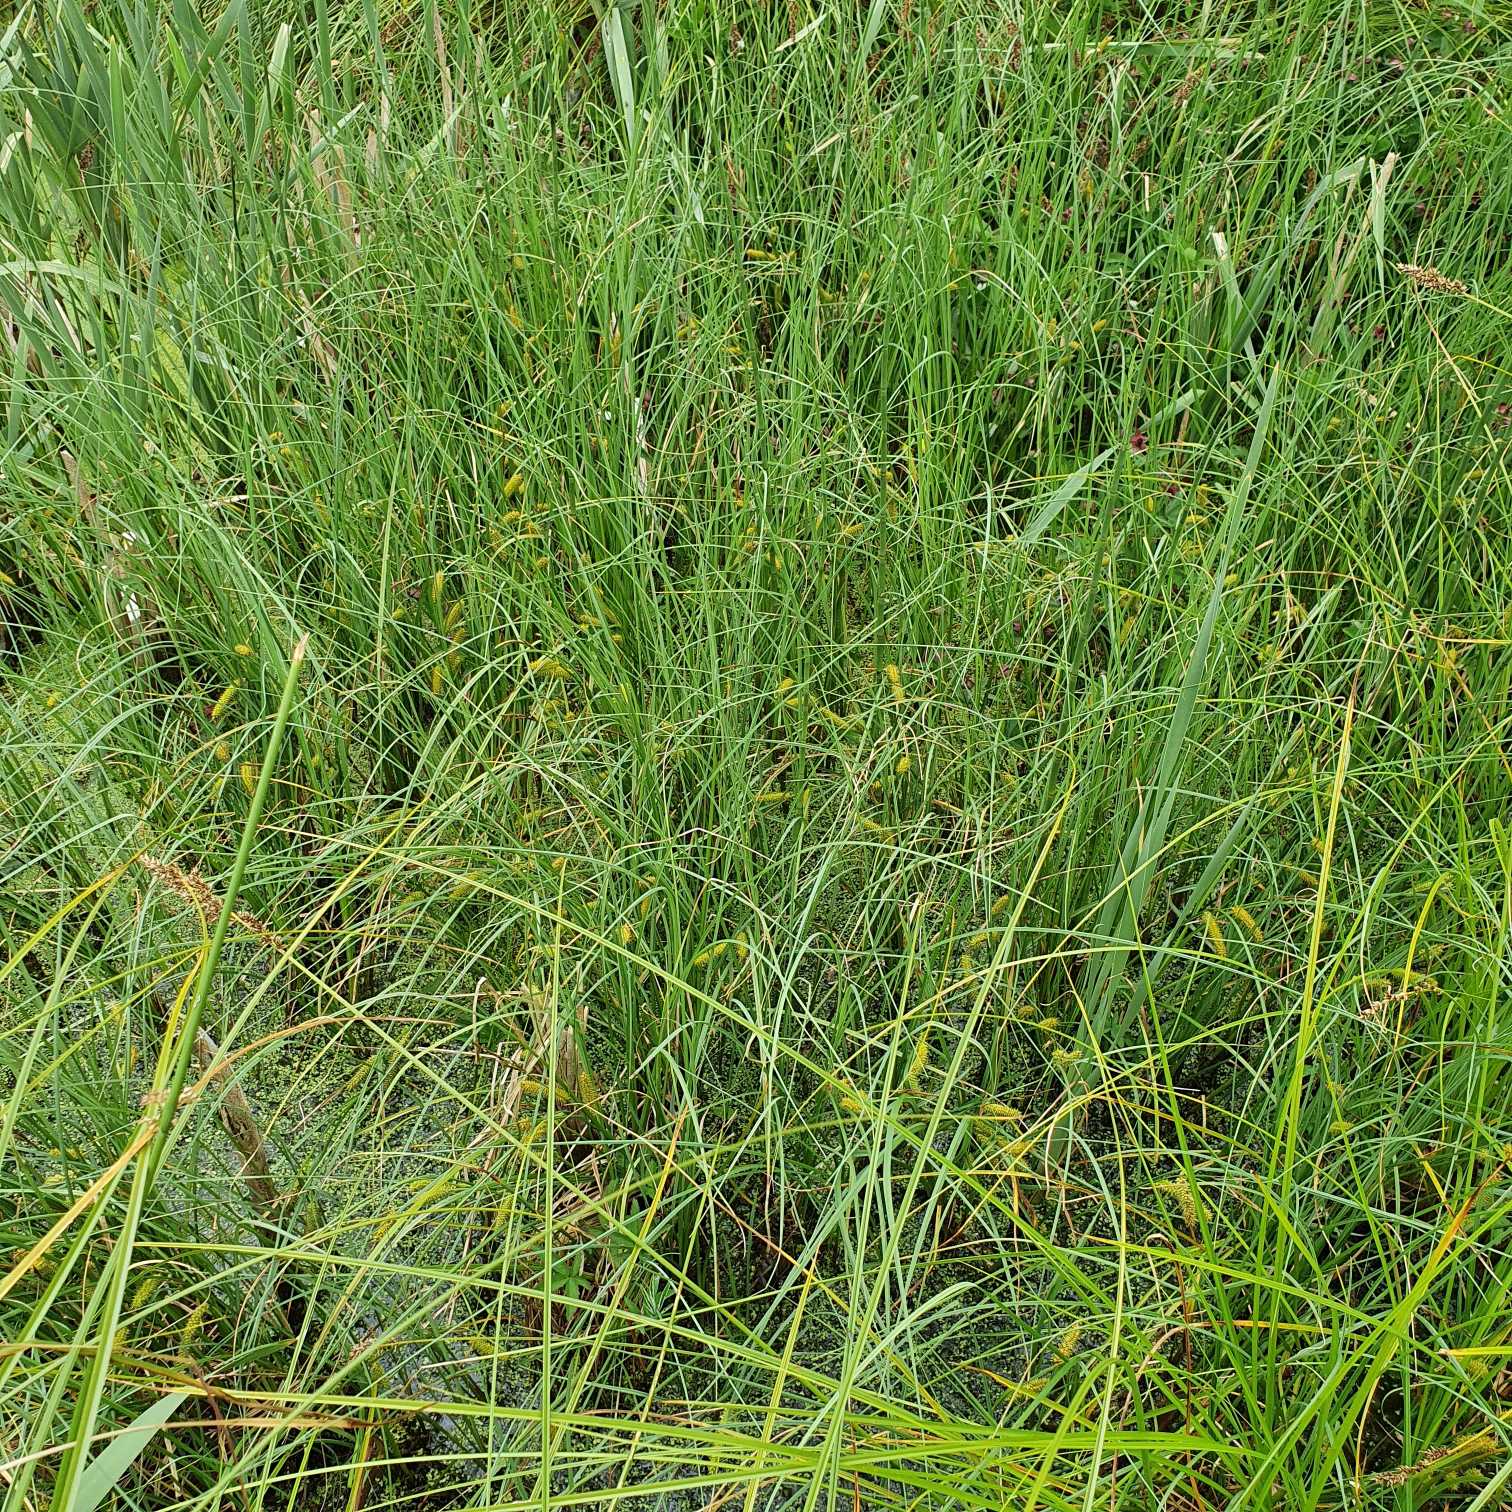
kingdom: Plantae
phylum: Tracheophyta
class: Liliopsida
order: Poales
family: Cyperaceae
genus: Carex
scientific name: Carex rostrata
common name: Næb-star
